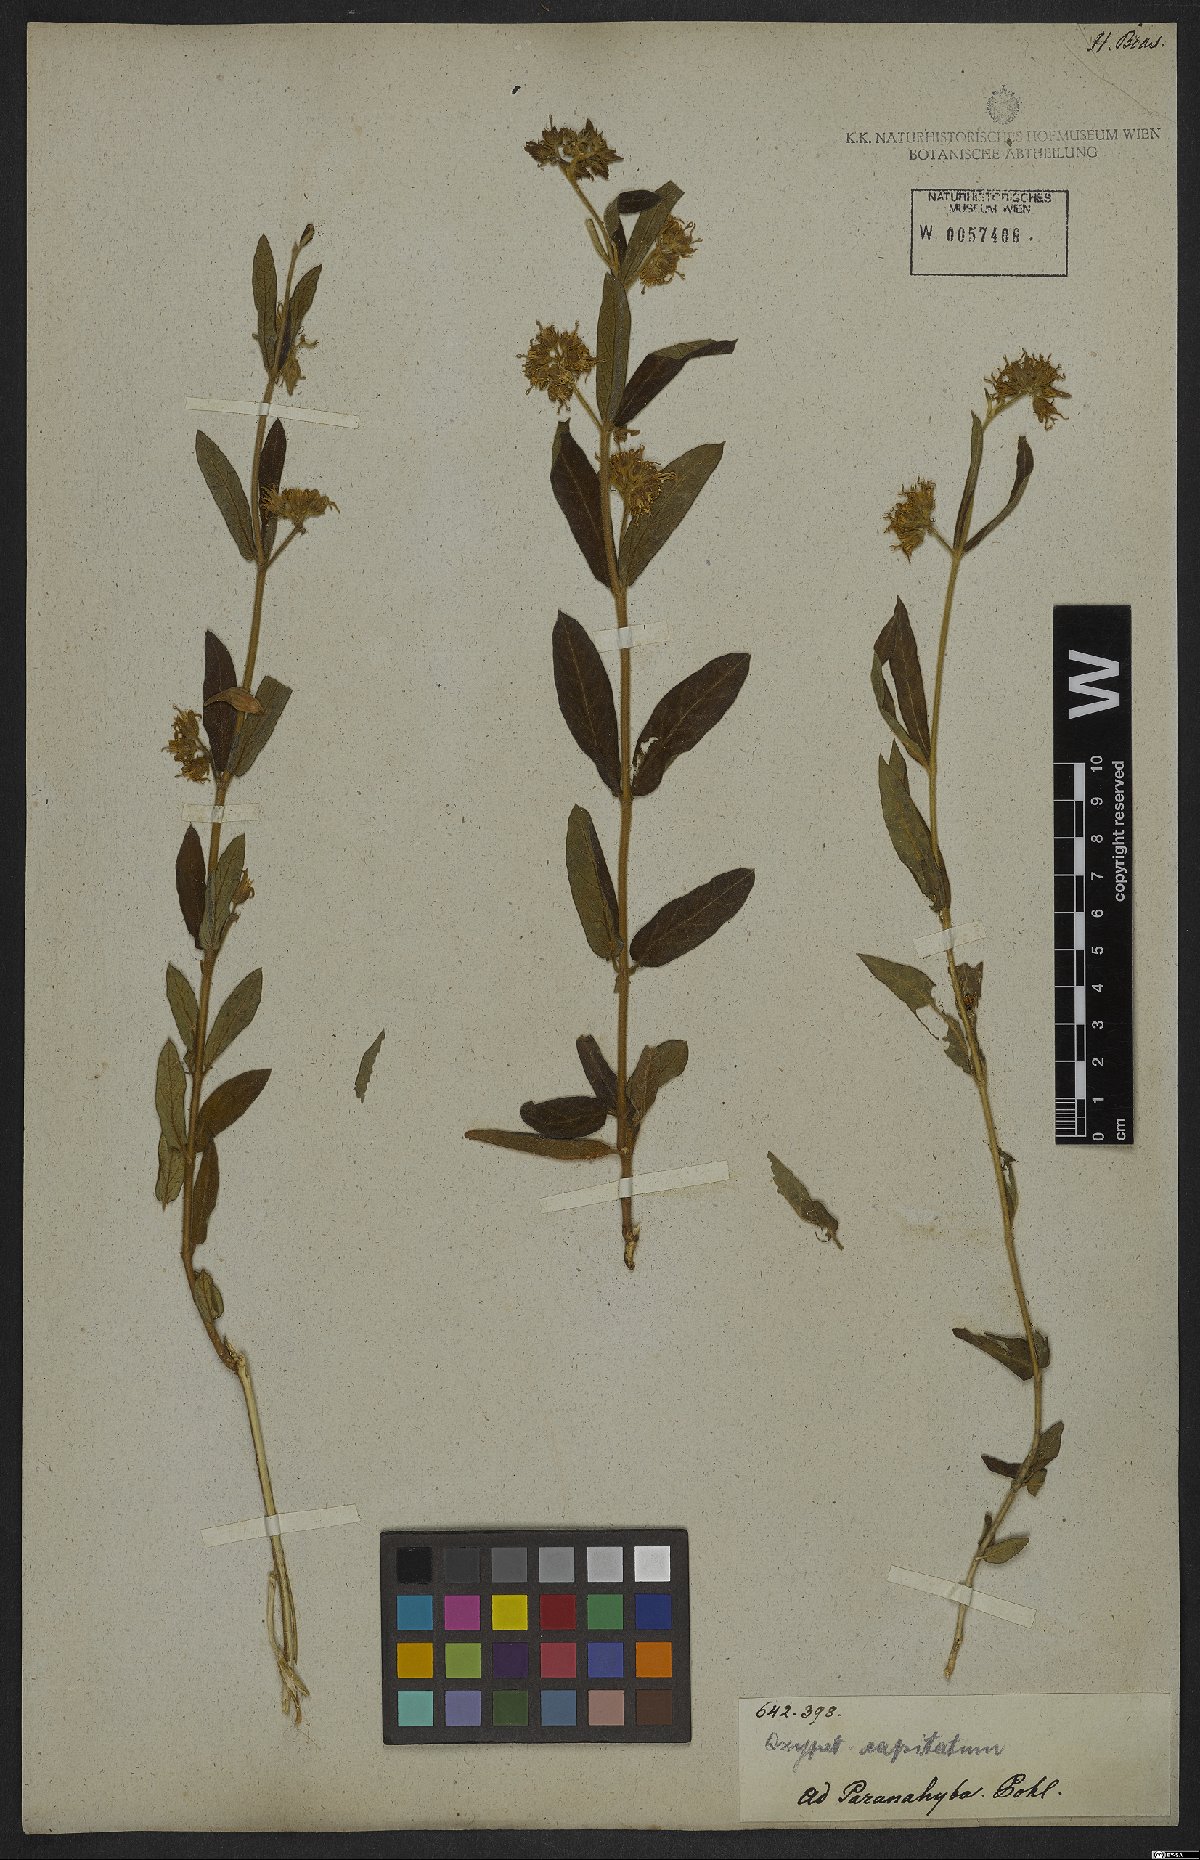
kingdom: Plantae
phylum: Tracheophyta
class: Magnoliopsida
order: Gentianales
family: Apocynaceae
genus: Oxypetalum
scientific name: Oxypetalum capitatum
